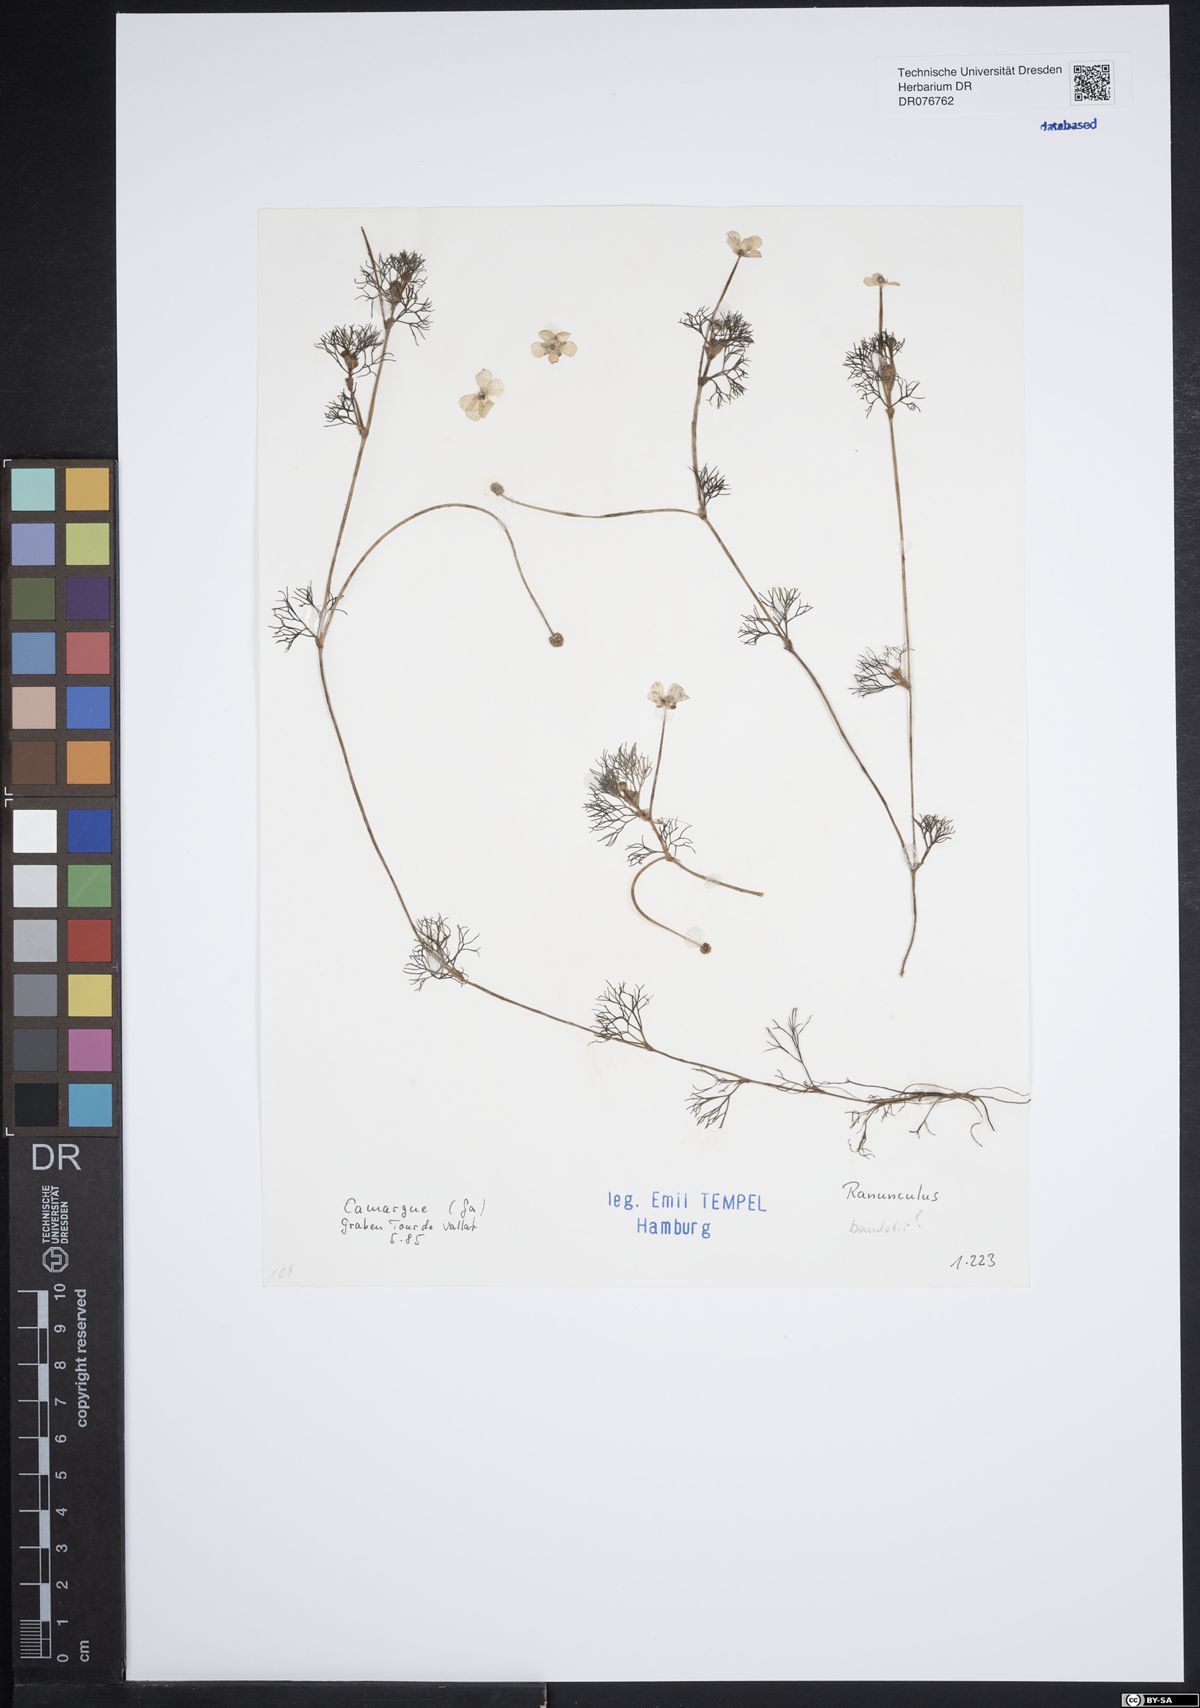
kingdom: Plantae
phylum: Tracheophyta
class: Magnoliopsida
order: Ranunculales
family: Ranunculaceae
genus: Ranunculus
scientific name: Ranunculus peltatus
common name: Pond water-crowfoot
